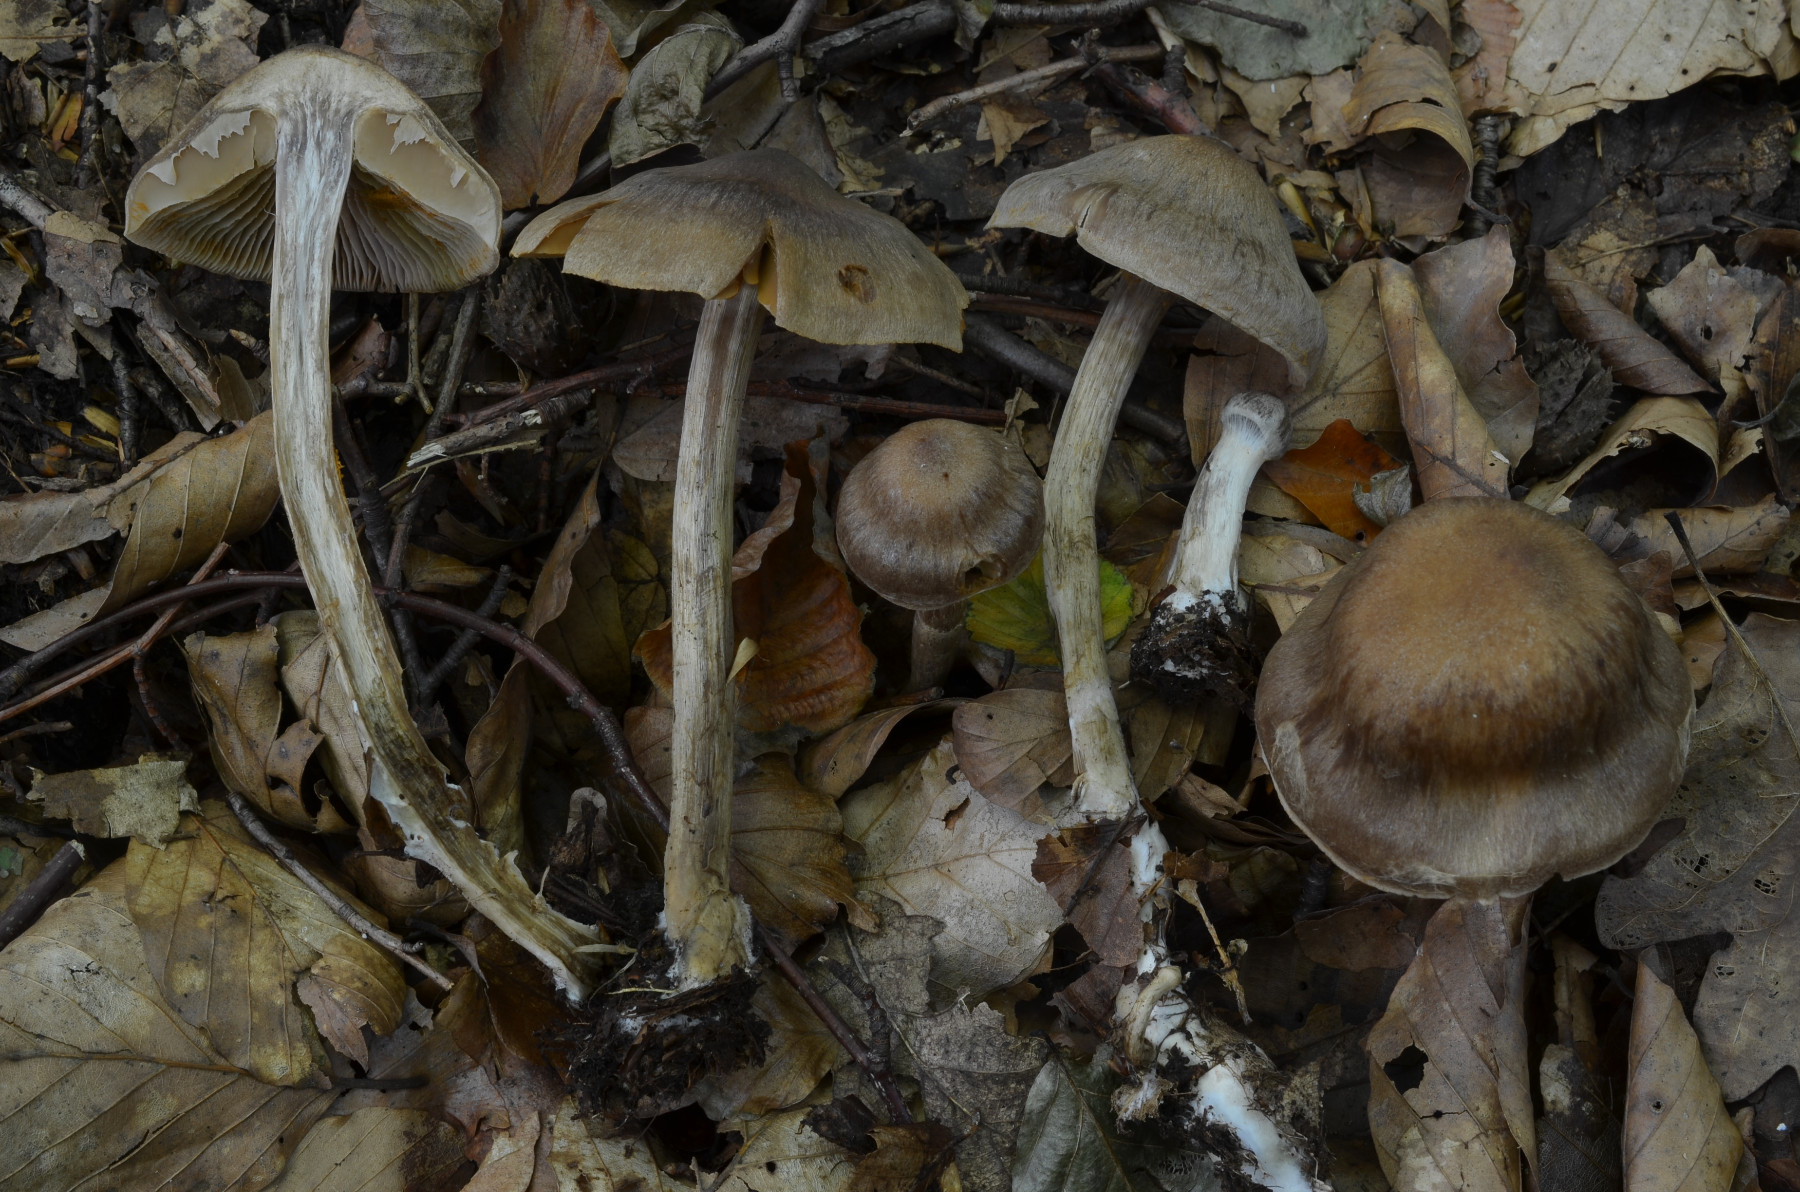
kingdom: Fungi
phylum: Basidiomycota
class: Agaricomycetes
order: Agaricales
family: Cortinariaceae
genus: Cortinarius
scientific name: Cortinarius valgus
